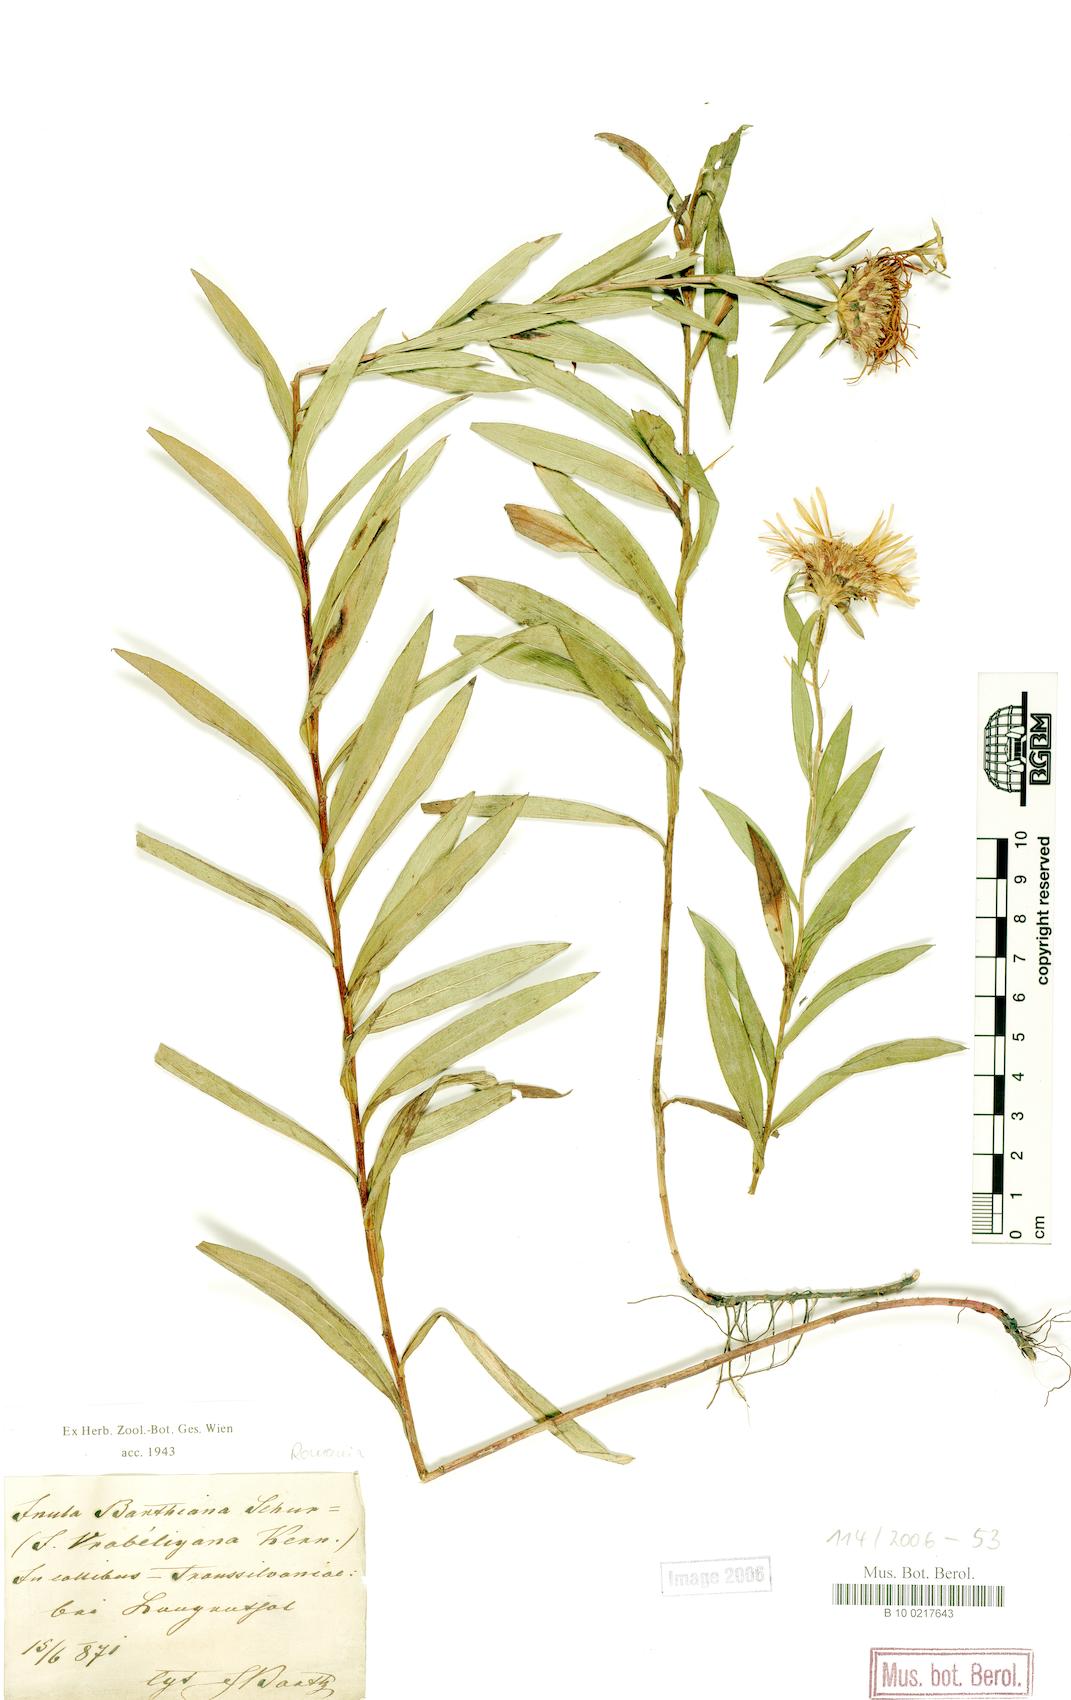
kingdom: Plantae
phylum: Tracheophyta
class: Magnoliopsida
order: Asterales
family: Asteraceae
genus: Pentanema
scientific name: Pentanema strictum
